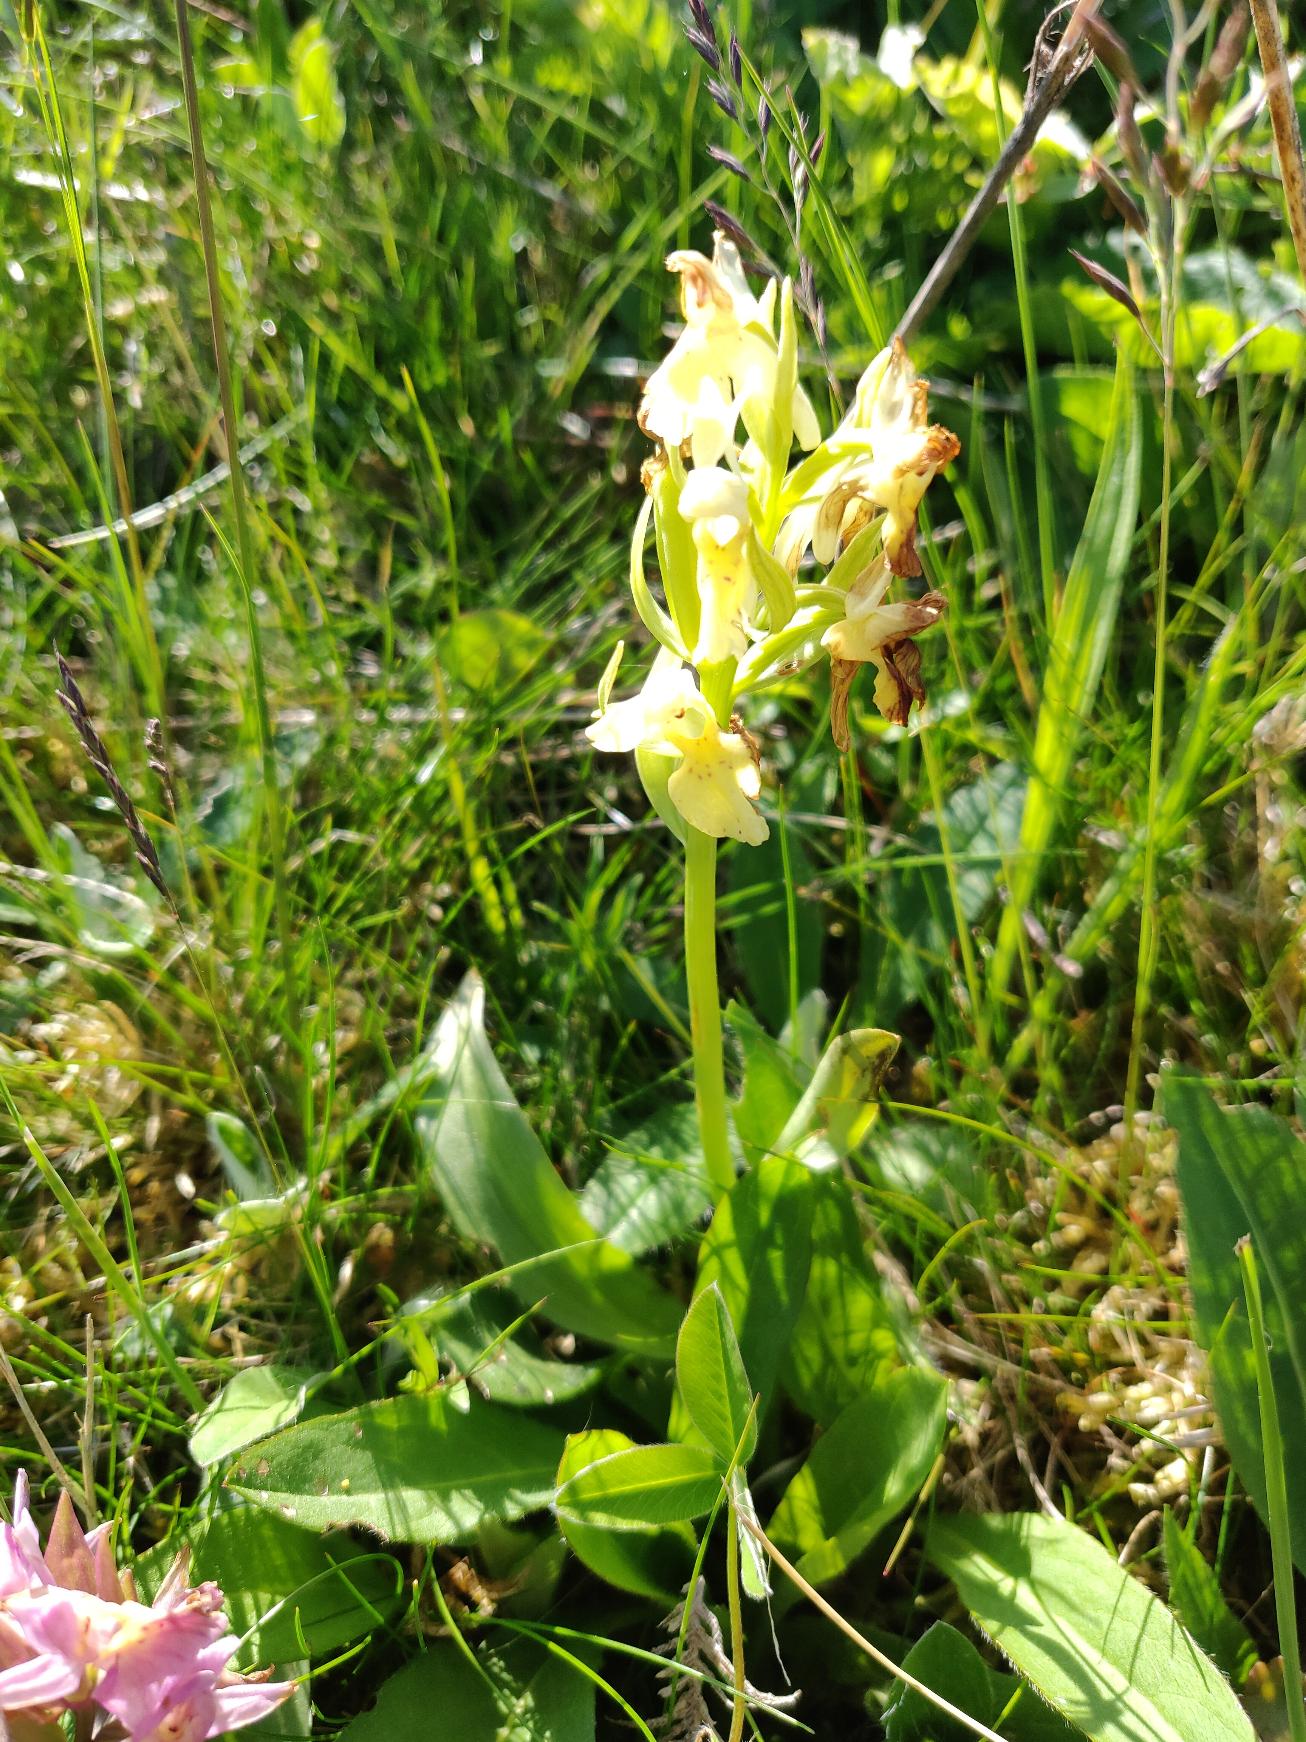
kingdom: Plantae
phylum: Tracheophyta
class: Liliopsida
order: Asparagales
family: Orchidaceae
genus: Dactylorhiza
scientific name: Dactylorhiza sambucina
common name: Hylde-gøgeurt
